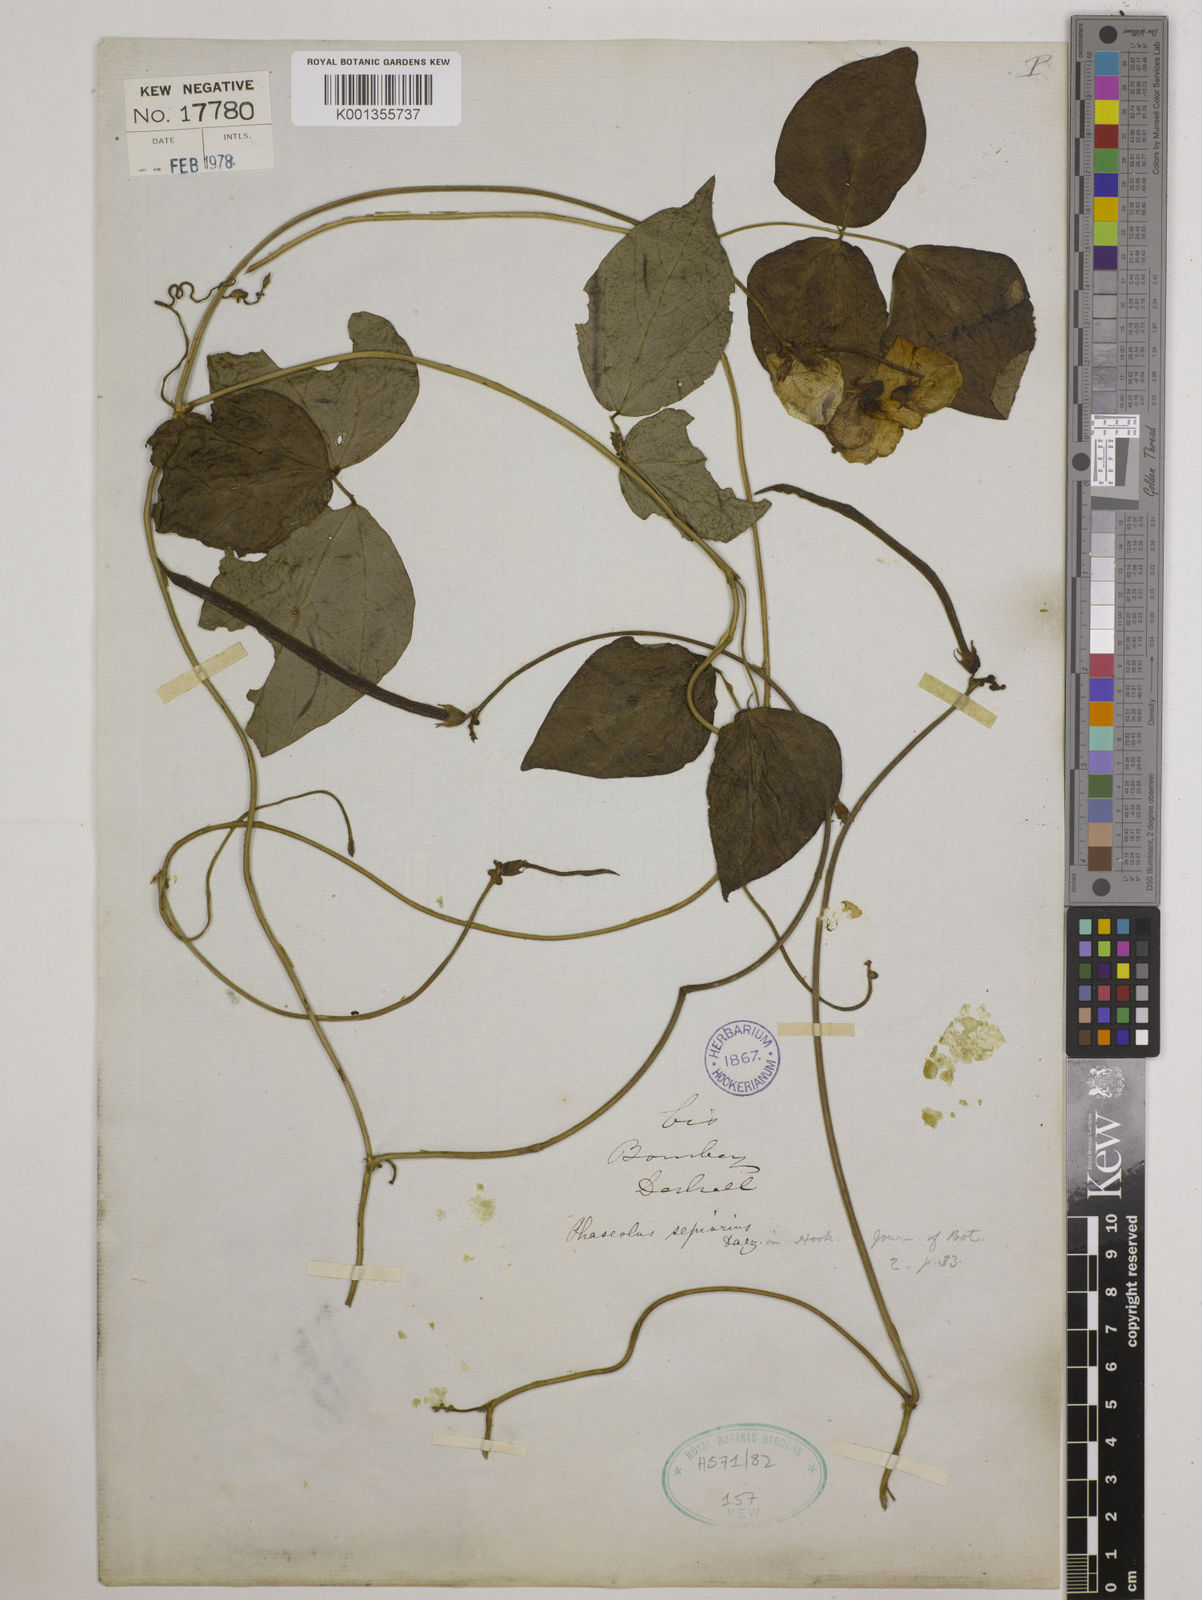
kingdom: Plantae
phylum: Tracheophyta
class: Magnoliopsida
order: Fabales
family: Fabaceae
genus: Vigna
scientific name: Vigna vexillata
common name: Zombi pea
